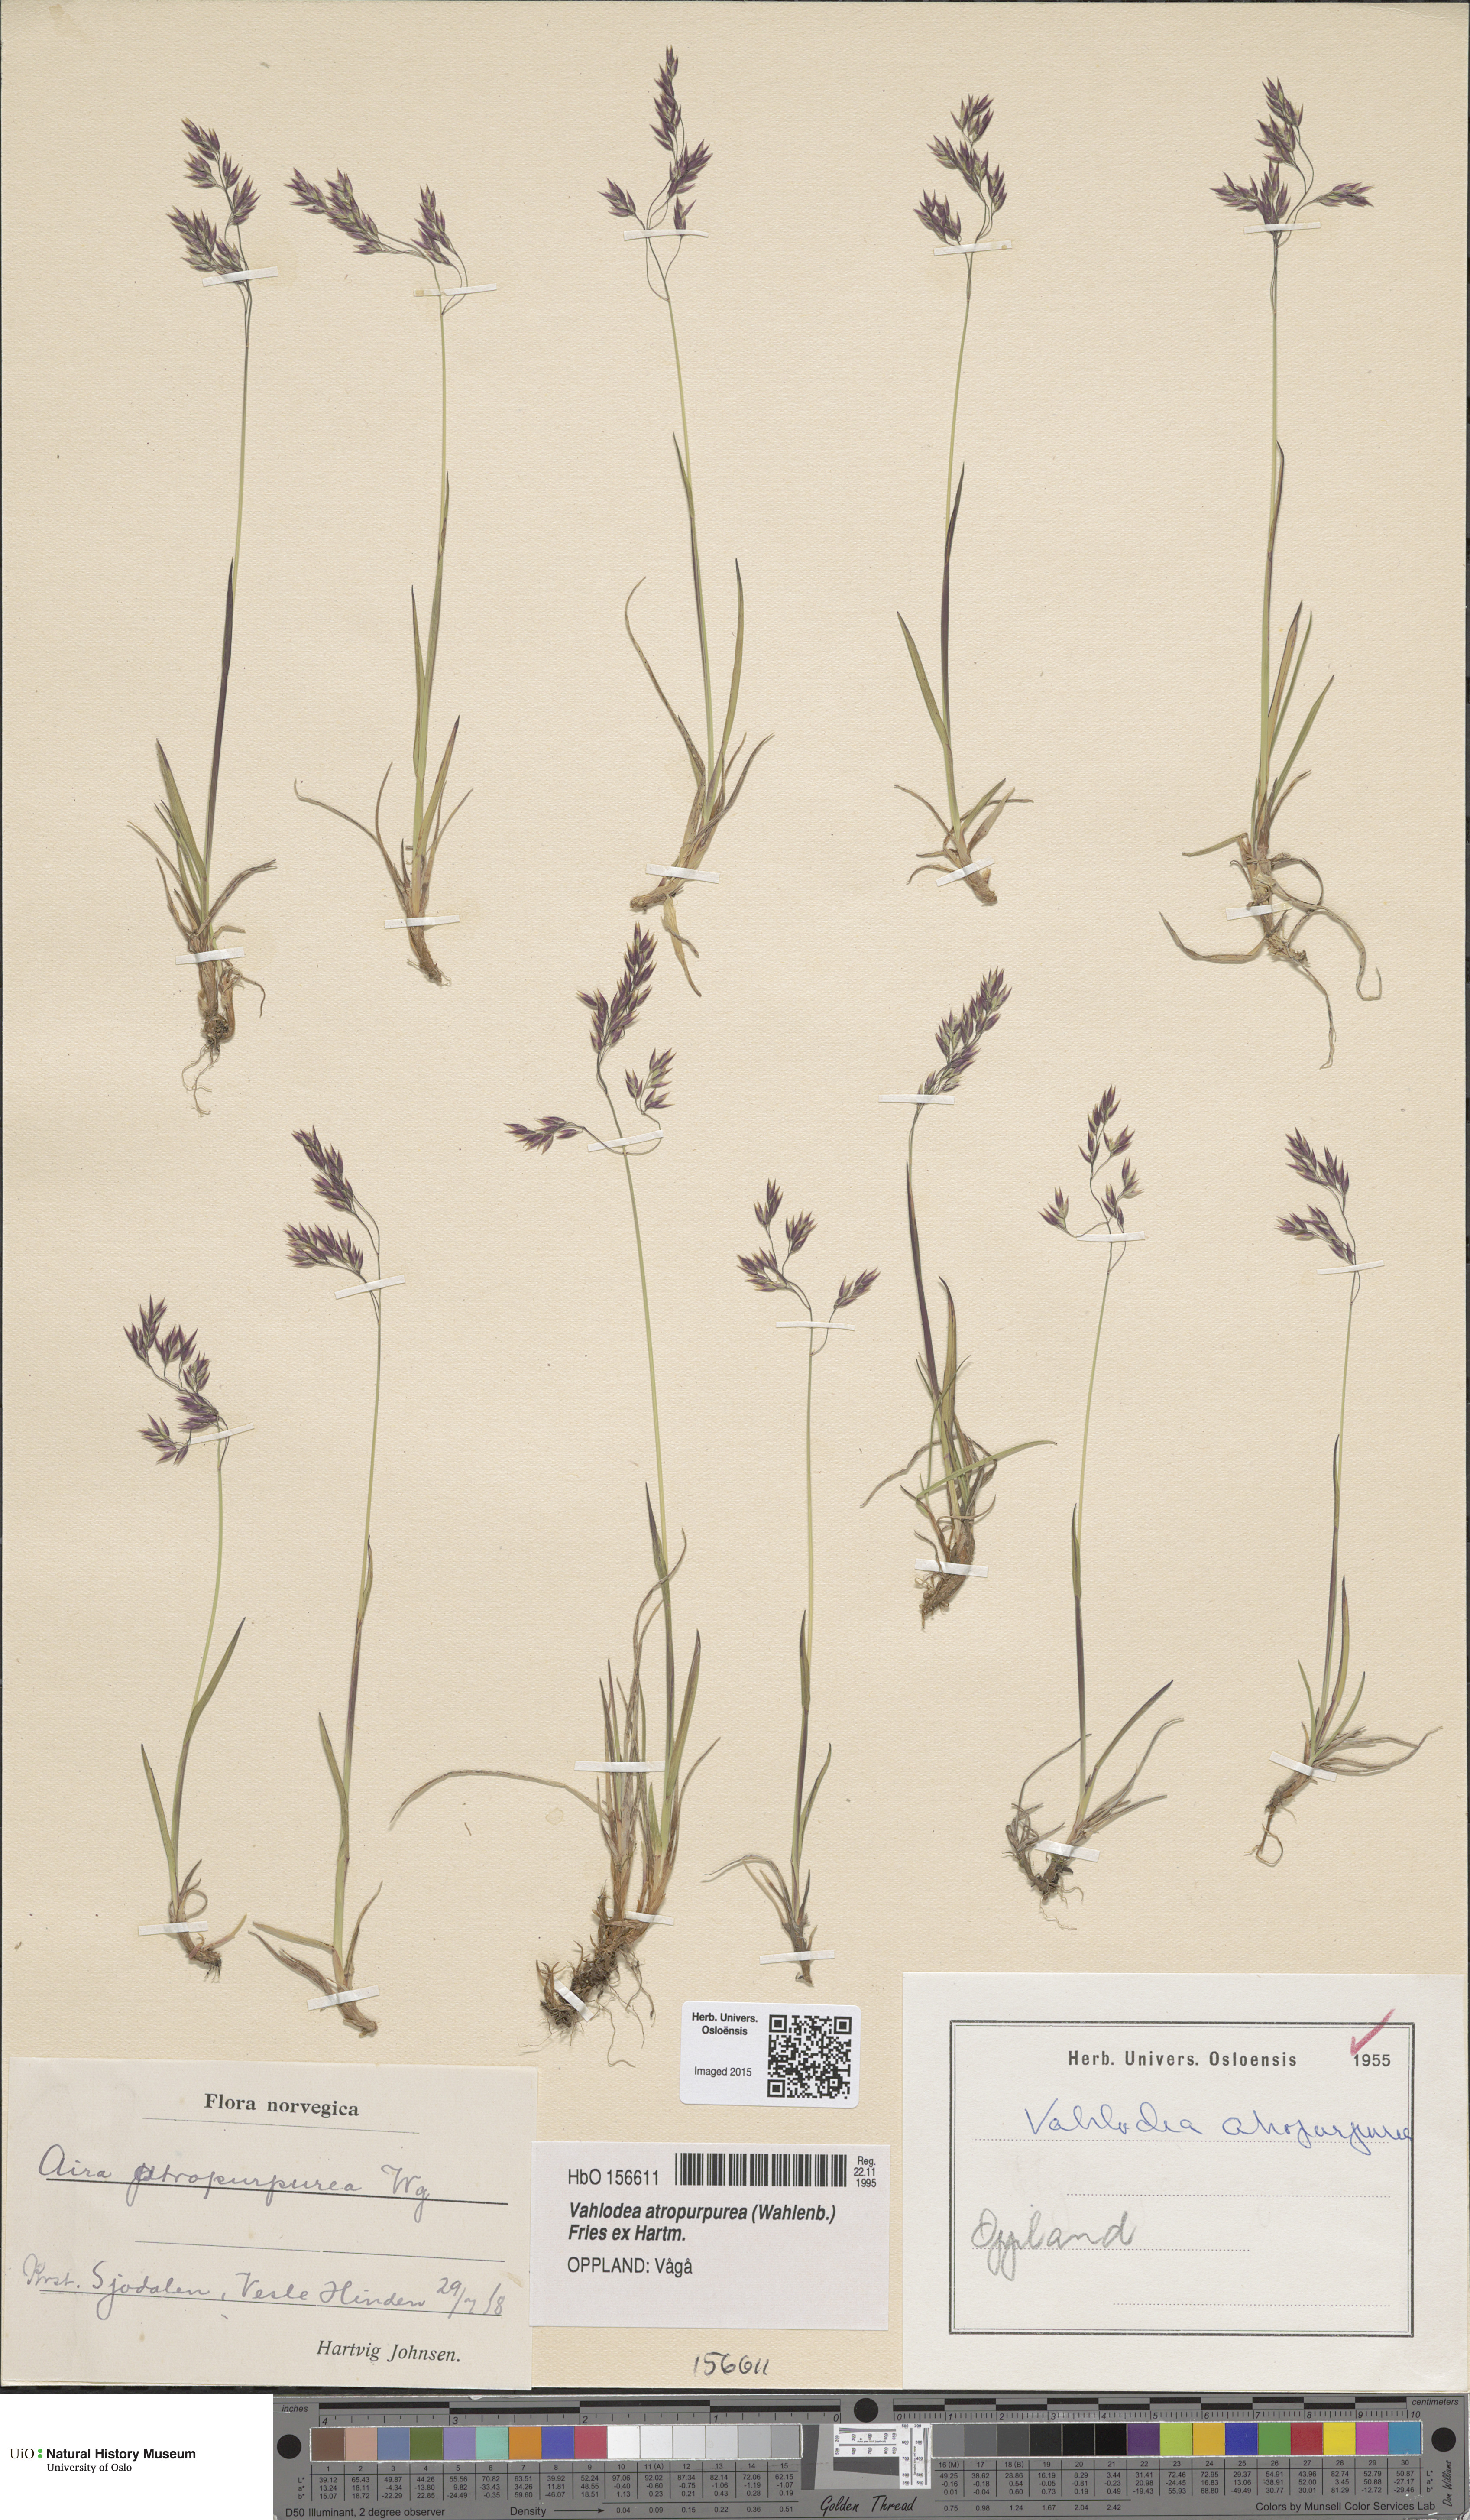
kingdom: Plantae
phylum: Tracheophyta
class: Liliopsida
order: Poales
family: Poaceae
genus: Vahlodea
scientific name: Vahlodea atropurpurea
